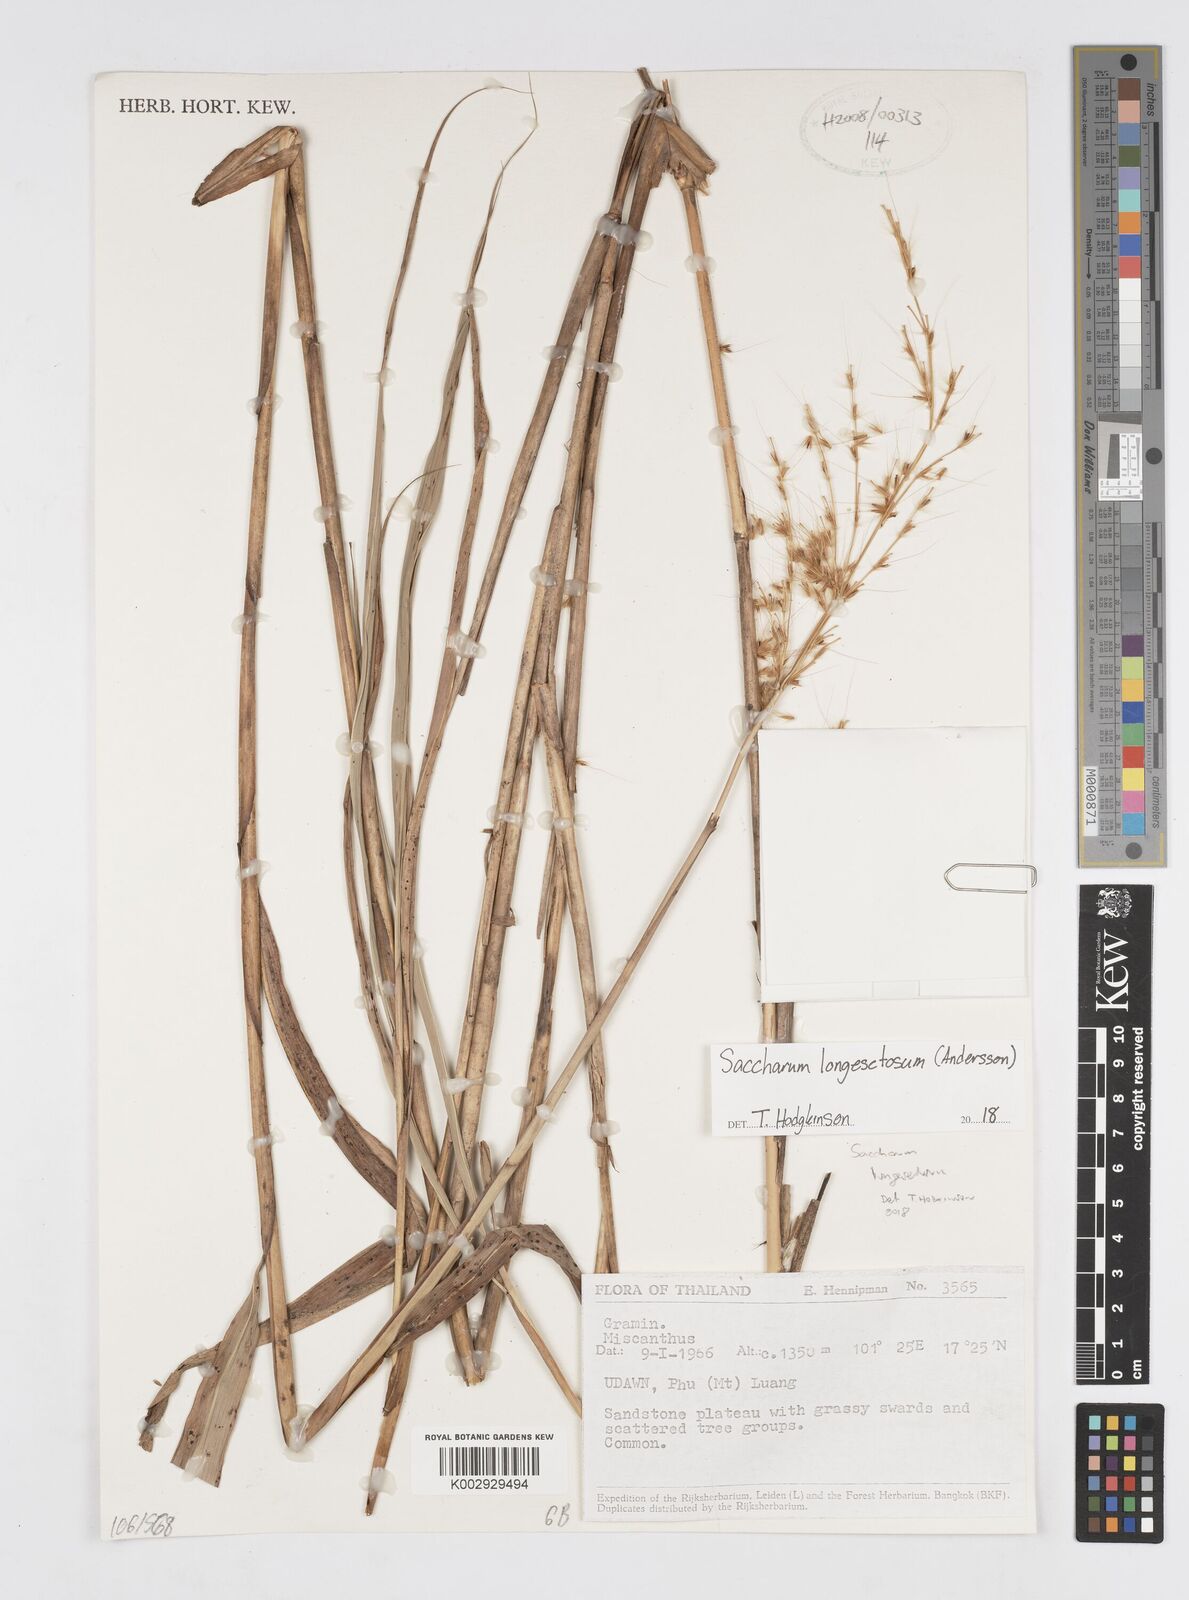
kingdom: Plantae
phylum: Tracheophyta
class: Liliopsida
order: Poales
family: Poaceae
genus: Saccharum
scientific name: Saccharum longesetosum
